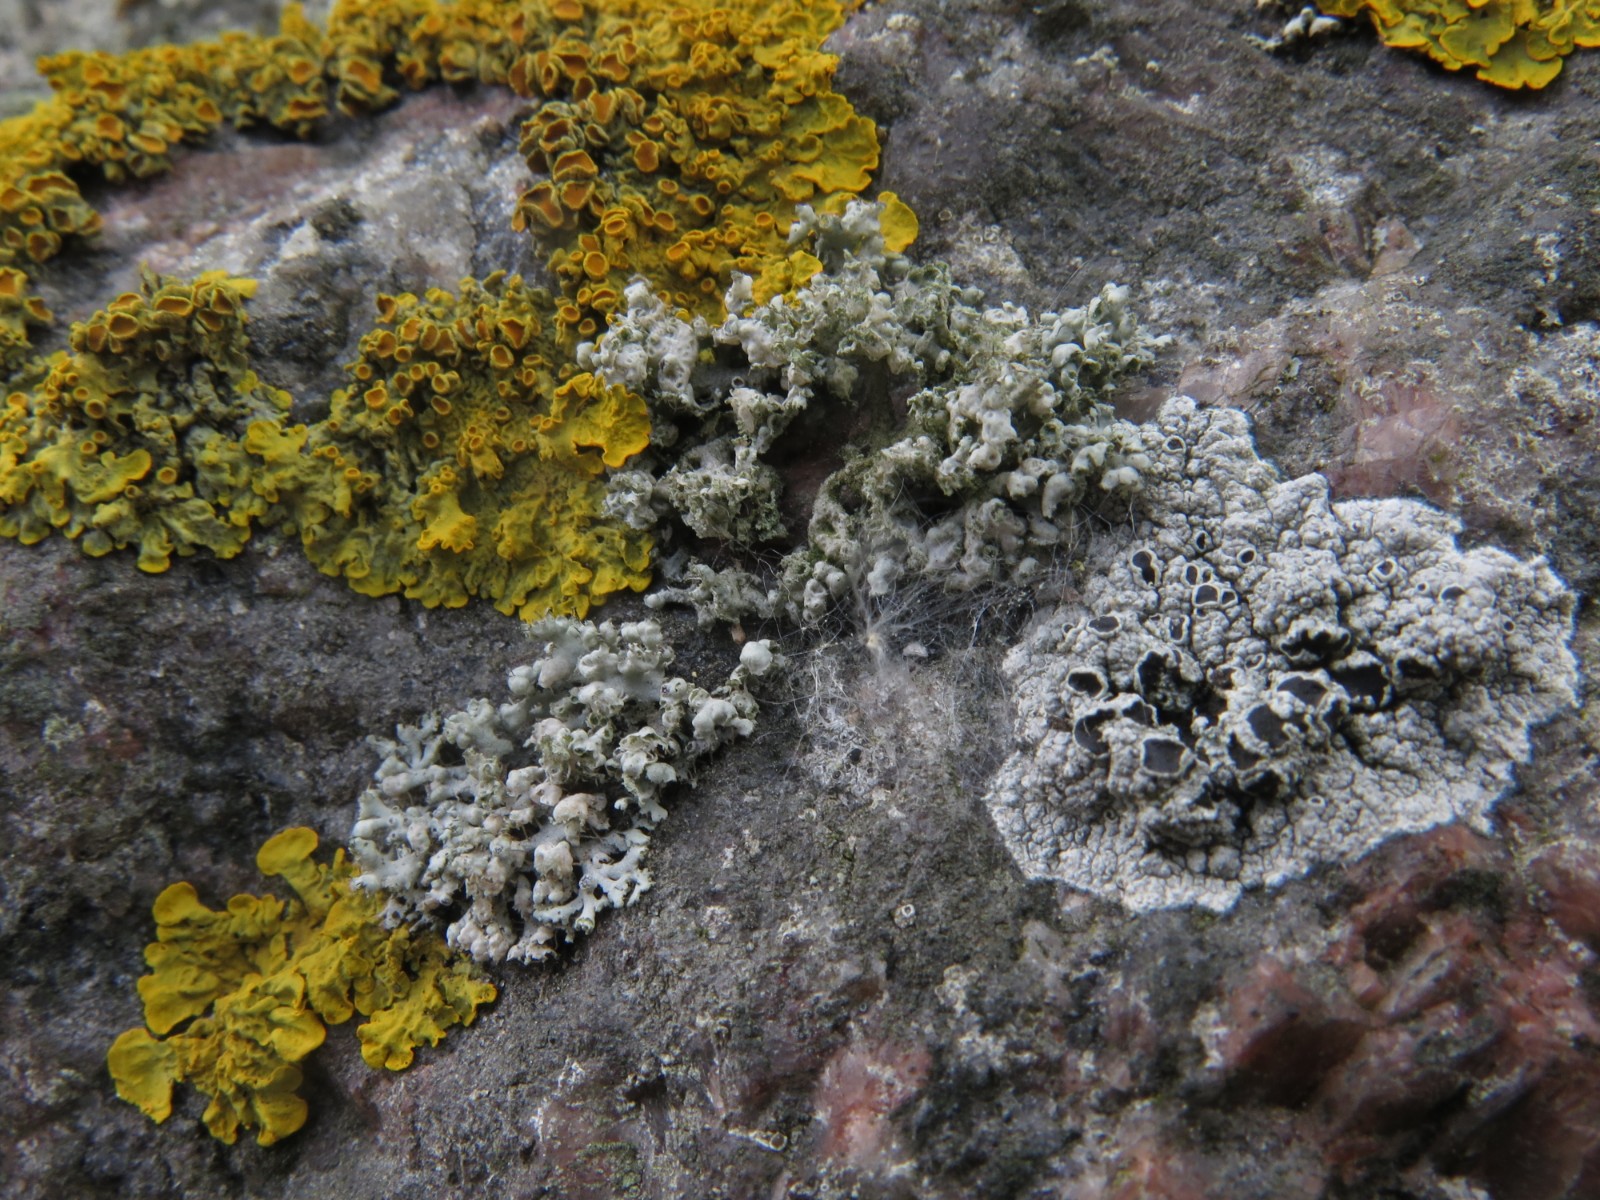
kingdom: Fungi
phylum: Ascomycota
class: Lecanoromycetes
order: Caliciales
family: Physciaceae
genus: Physcia
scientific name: Physcia adscendens
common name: hætte-rosetlav
